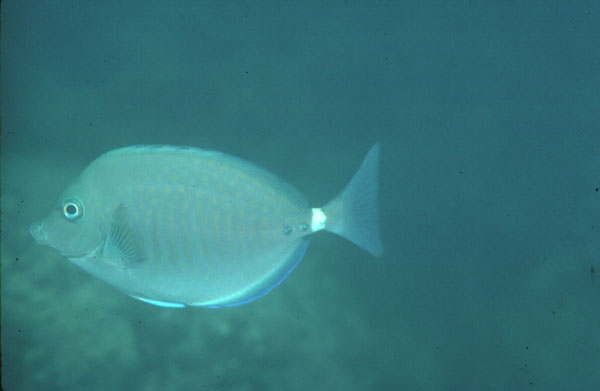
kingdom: Animalia
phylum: Chordata
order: Perciformes
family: Acanthuridae
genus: Prionurus
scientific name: Prionurus maculatus
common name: Yellowspotted sawtail
